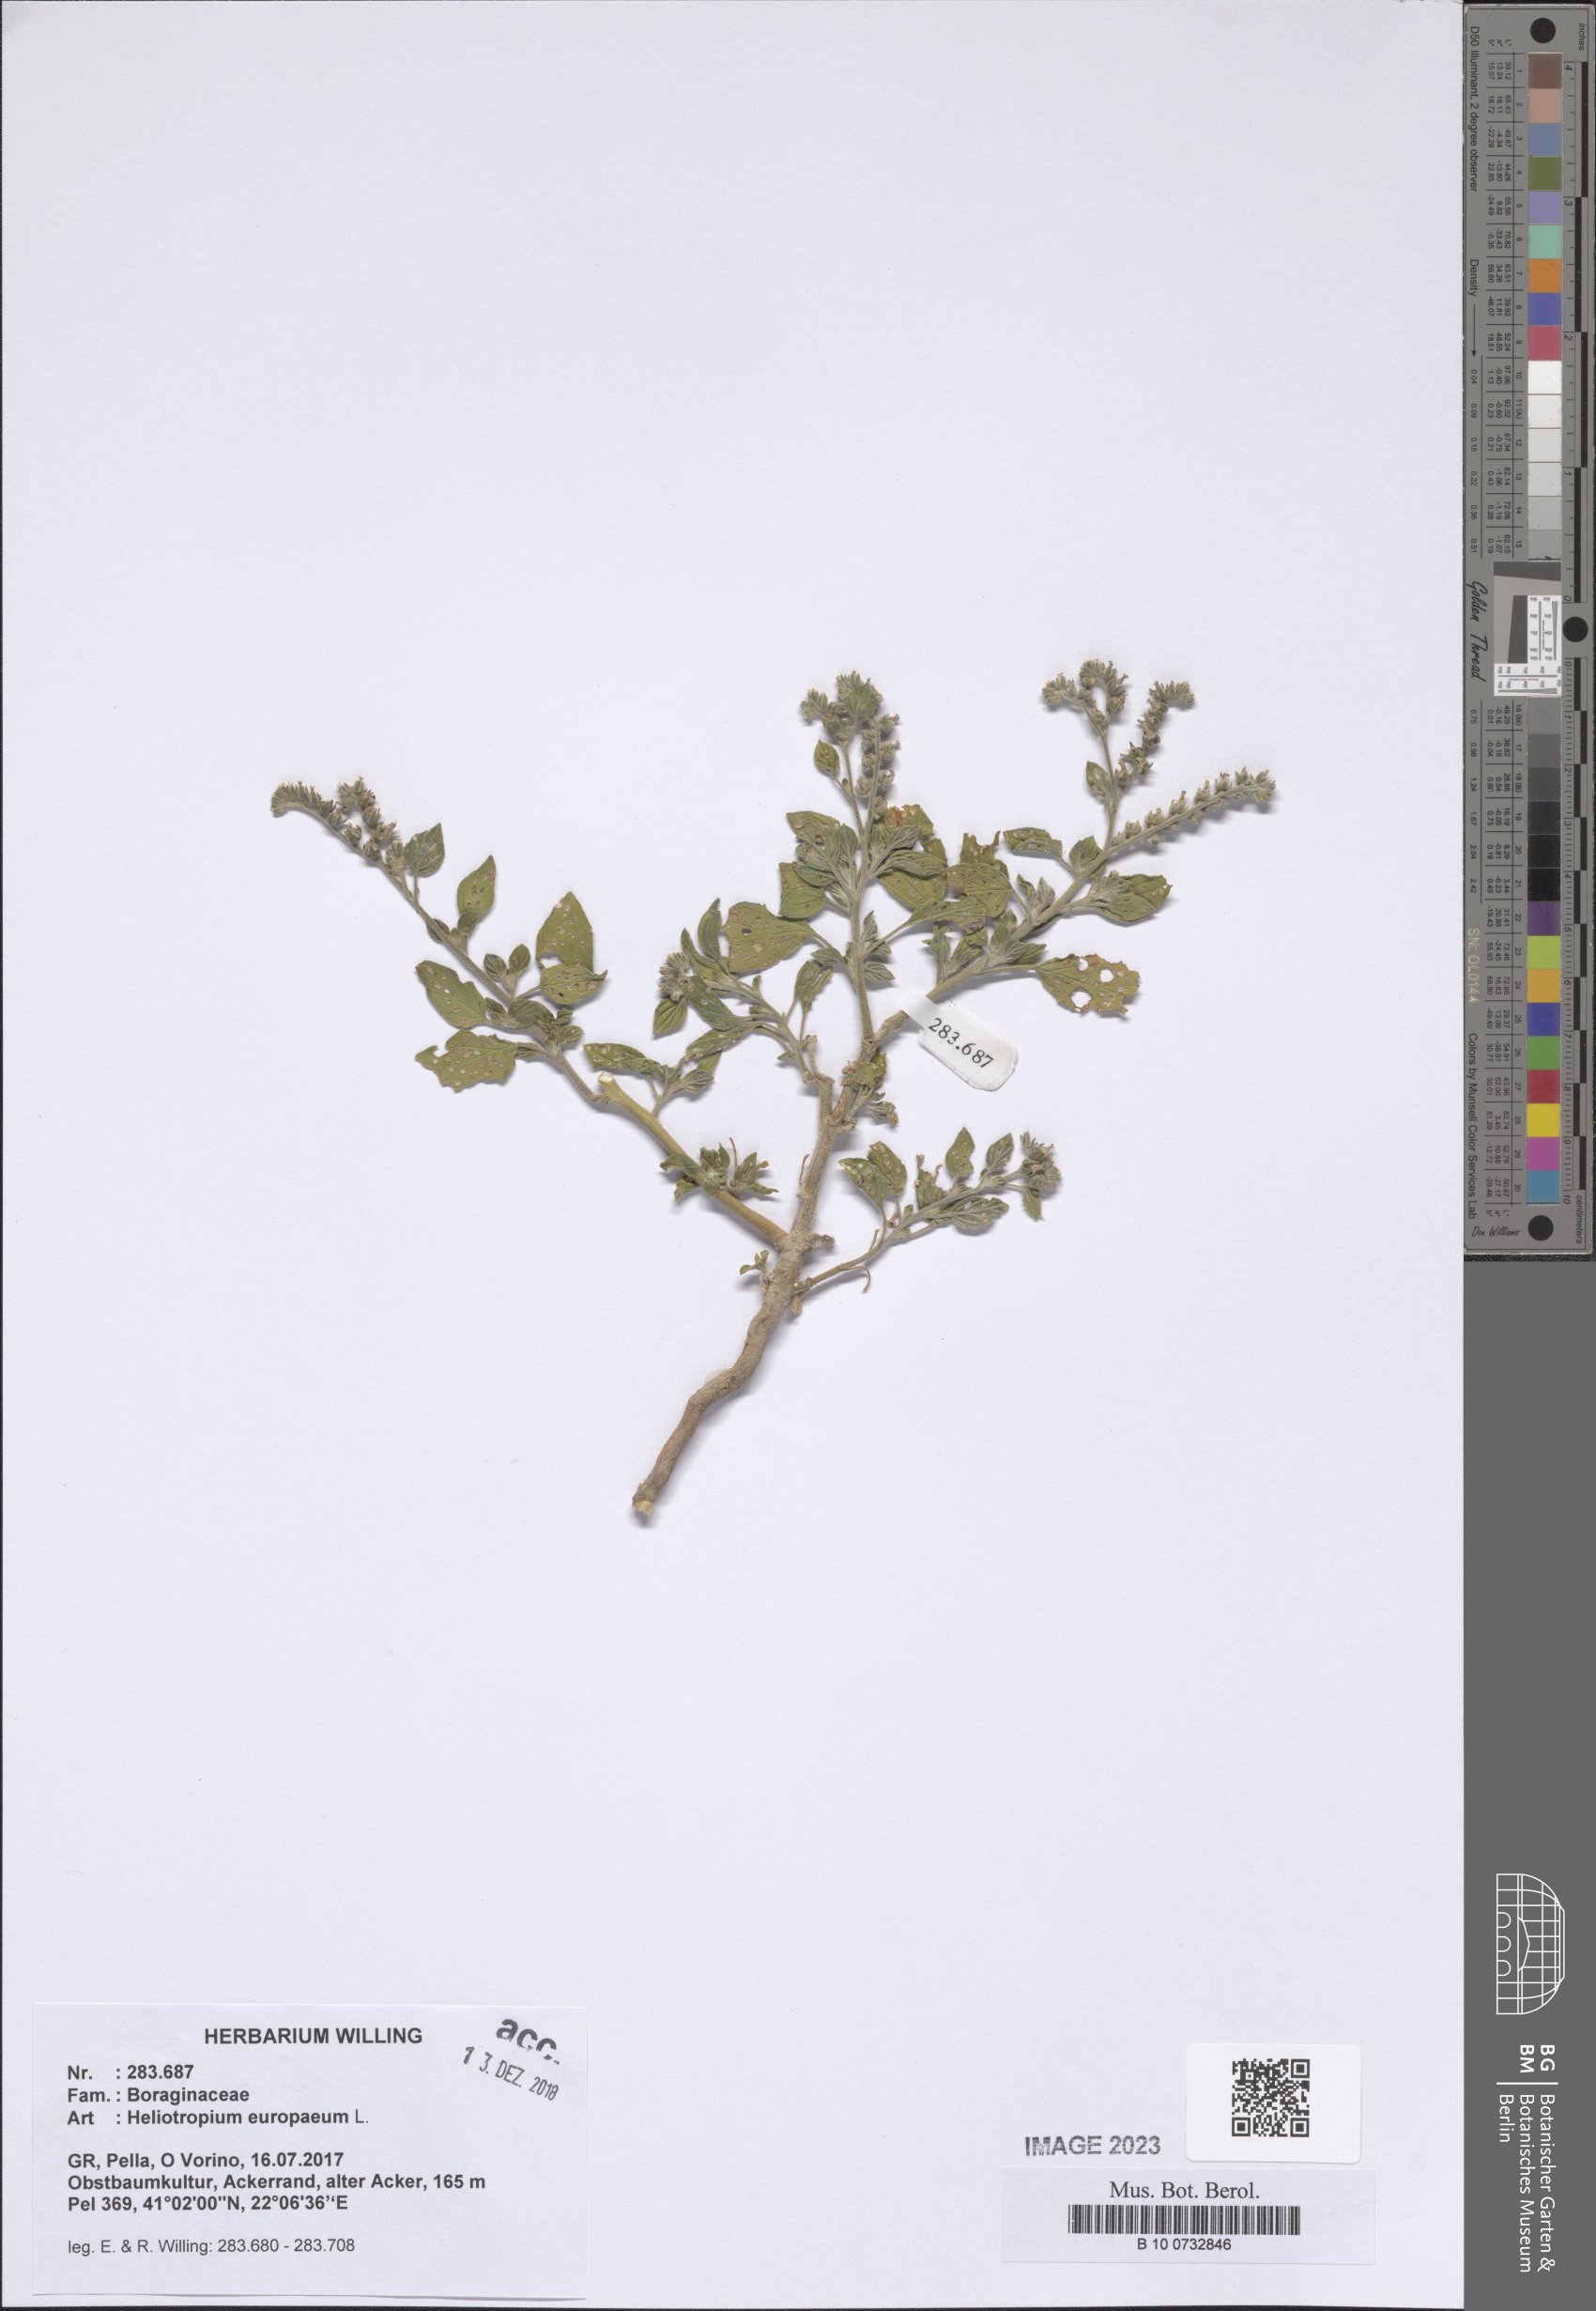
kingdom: Plantae
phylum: Tracheophyta
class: Magnoliopsida
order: Boraginales
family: Heliotropiaceae
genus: Heliotropium
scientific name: Heliotropium europaeum
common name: European heliotrope
